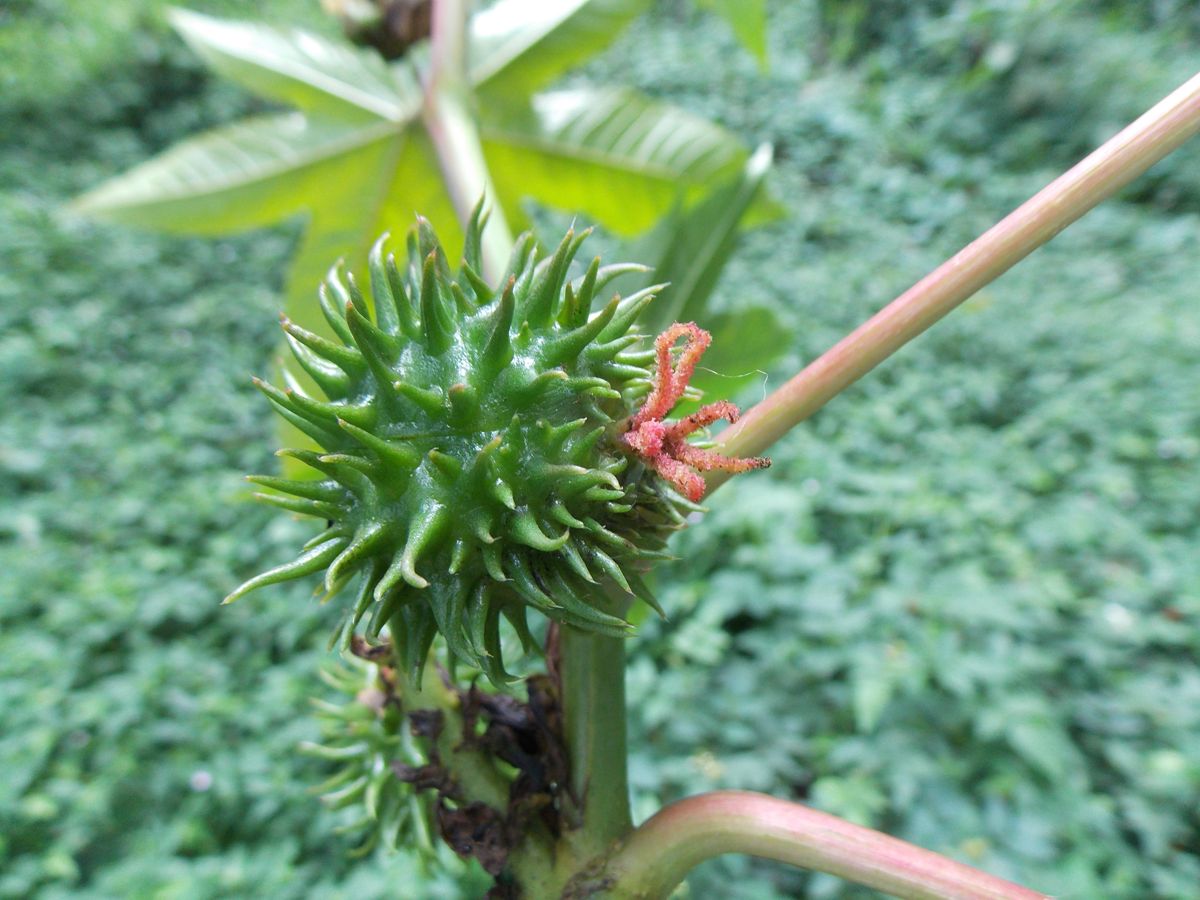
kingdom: Plantae
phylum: Tracheophyta
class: Magnoliopsida
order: Malpighiales
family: Euphorbiaceae
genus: Ricinus
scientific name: Ricinus communis
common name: Castor-oil-plant
